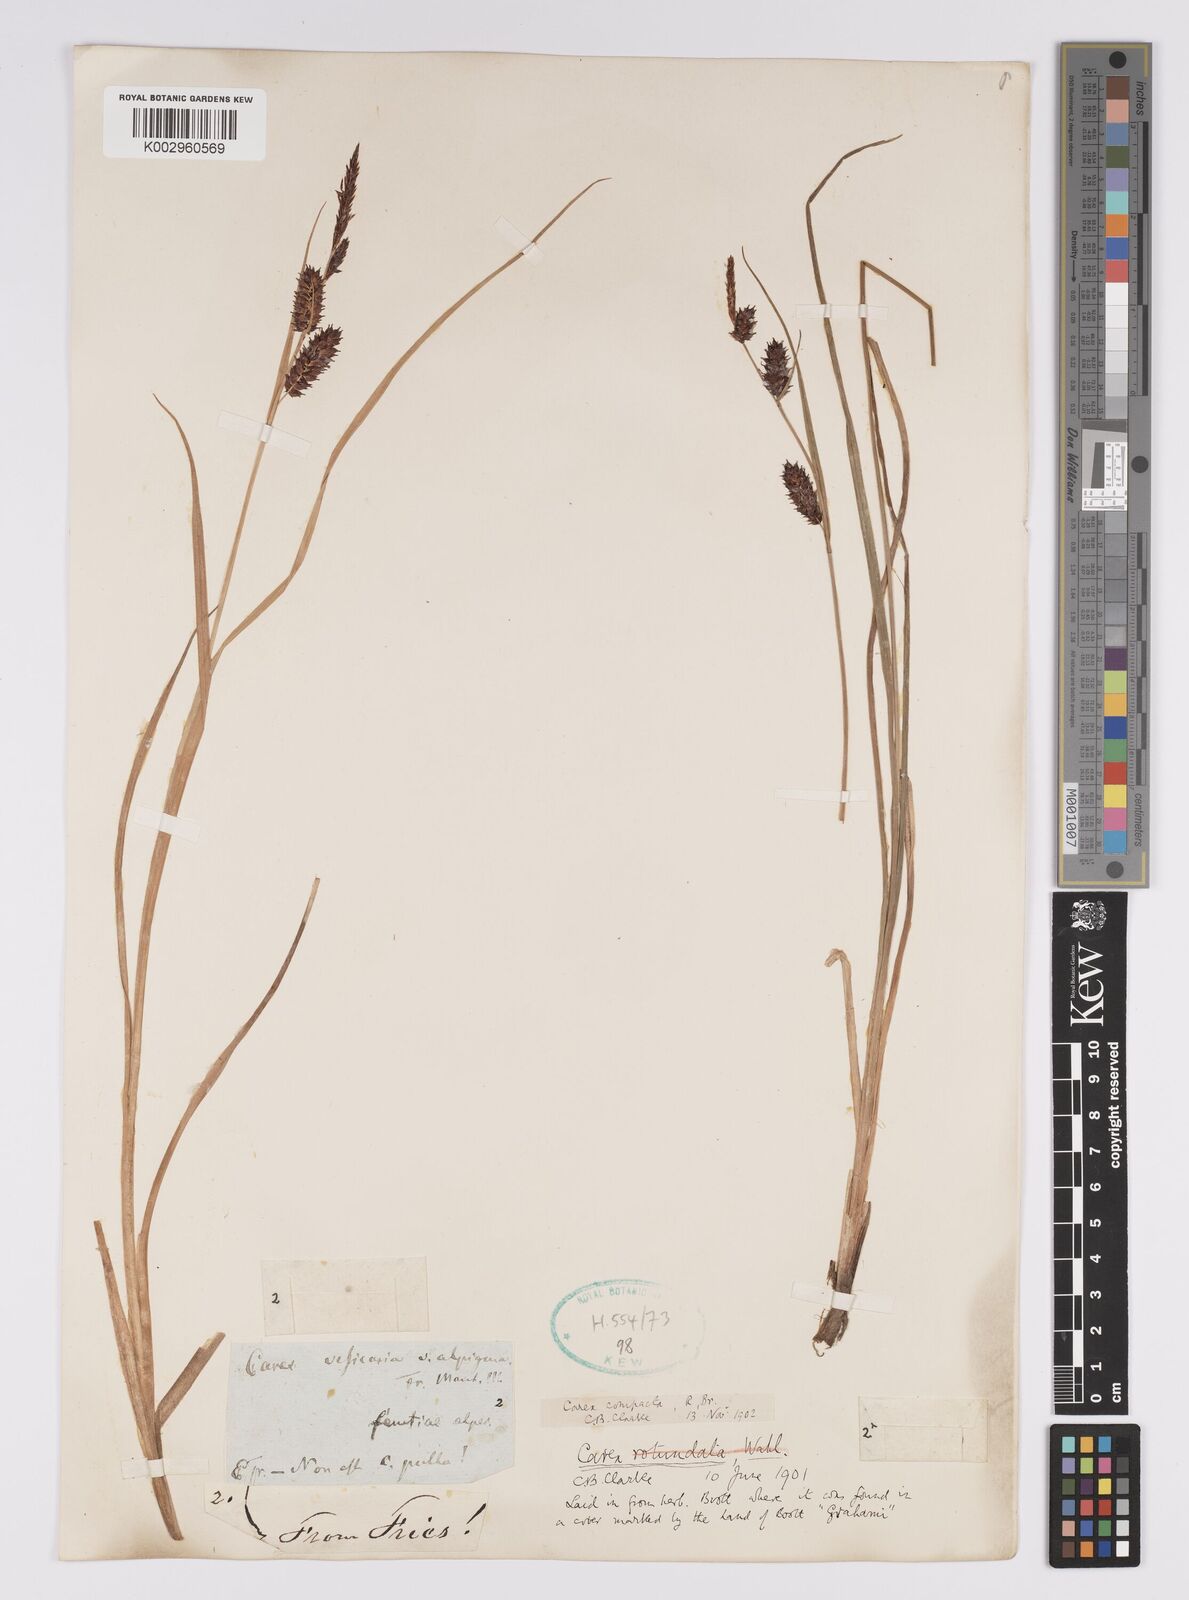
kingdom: Plantae
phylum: Tracheophyta
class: Liliopsida
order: Poales
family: Cyperaceae
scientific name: Cyperaceae
